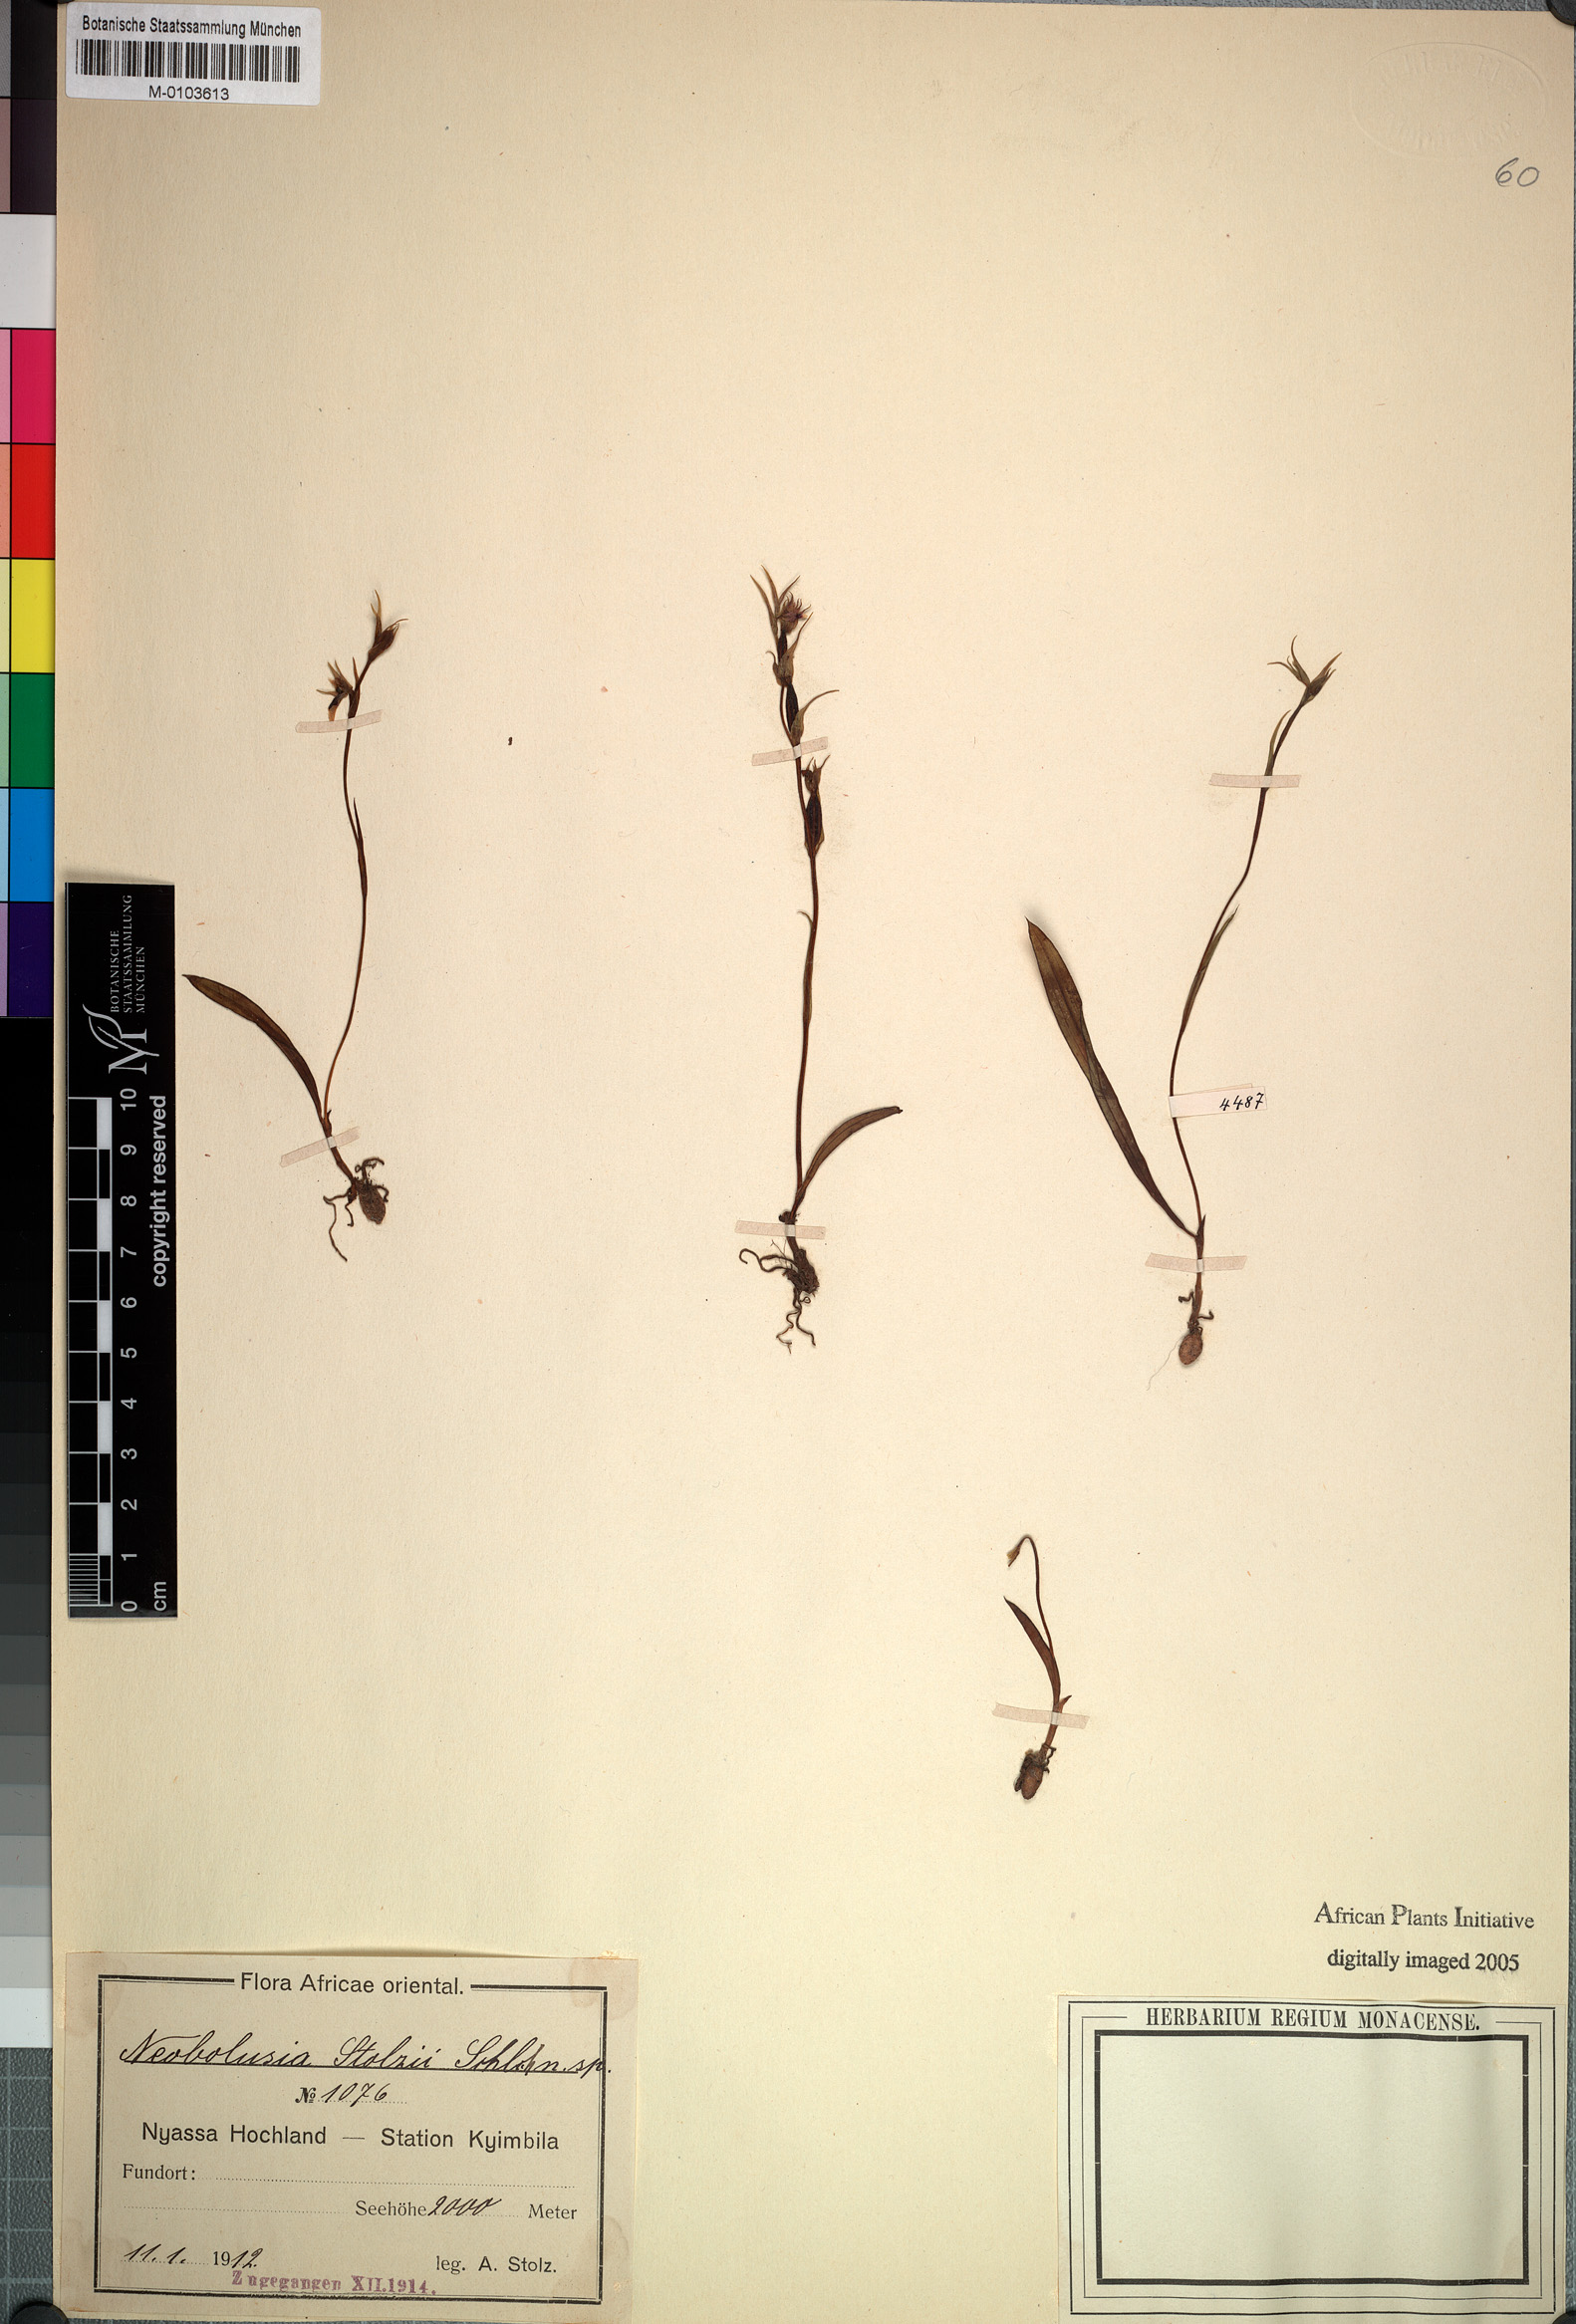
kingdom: Plantae
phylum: Tracheophyta
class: Liliopsida
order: Asparagales
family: Orchidaceae
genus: Neobolusia
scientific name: Neobolusia stolzii
